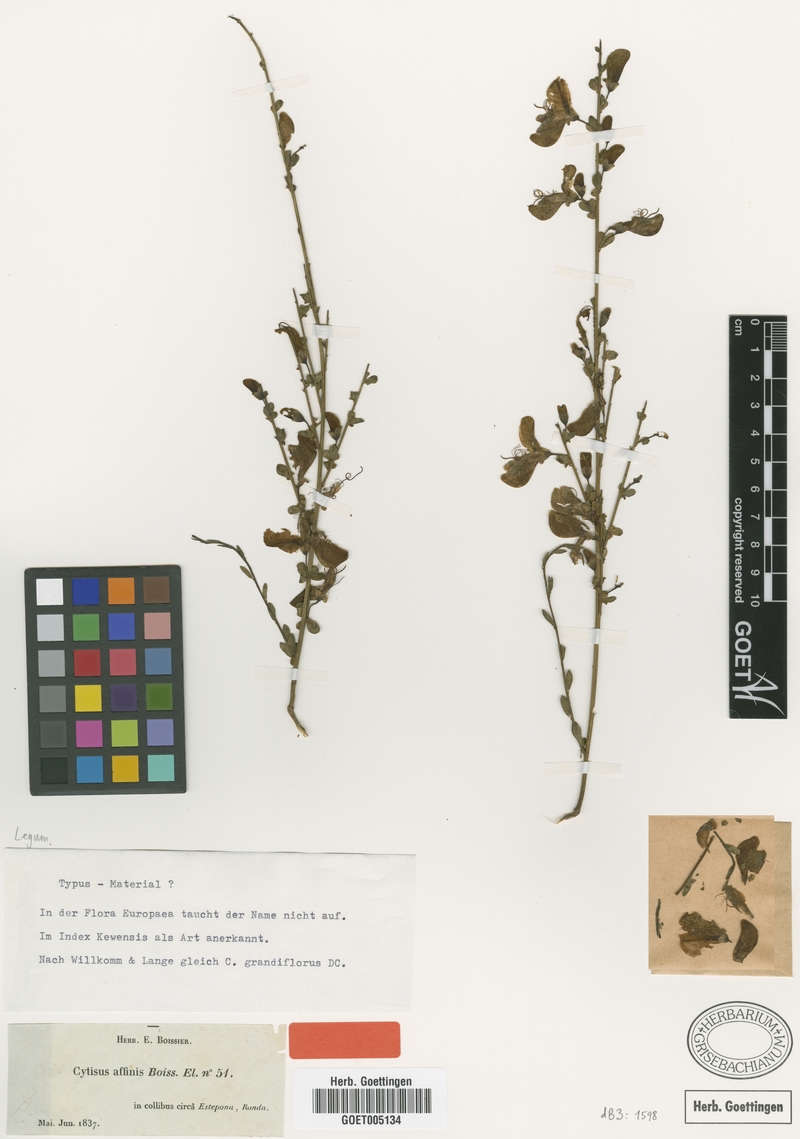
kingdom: Plantae
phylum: Tracheophyta
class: Magnoliopsida
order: Fabales
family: Fabaceae
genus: Cytisus
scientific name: Cytisus grandiflorus
